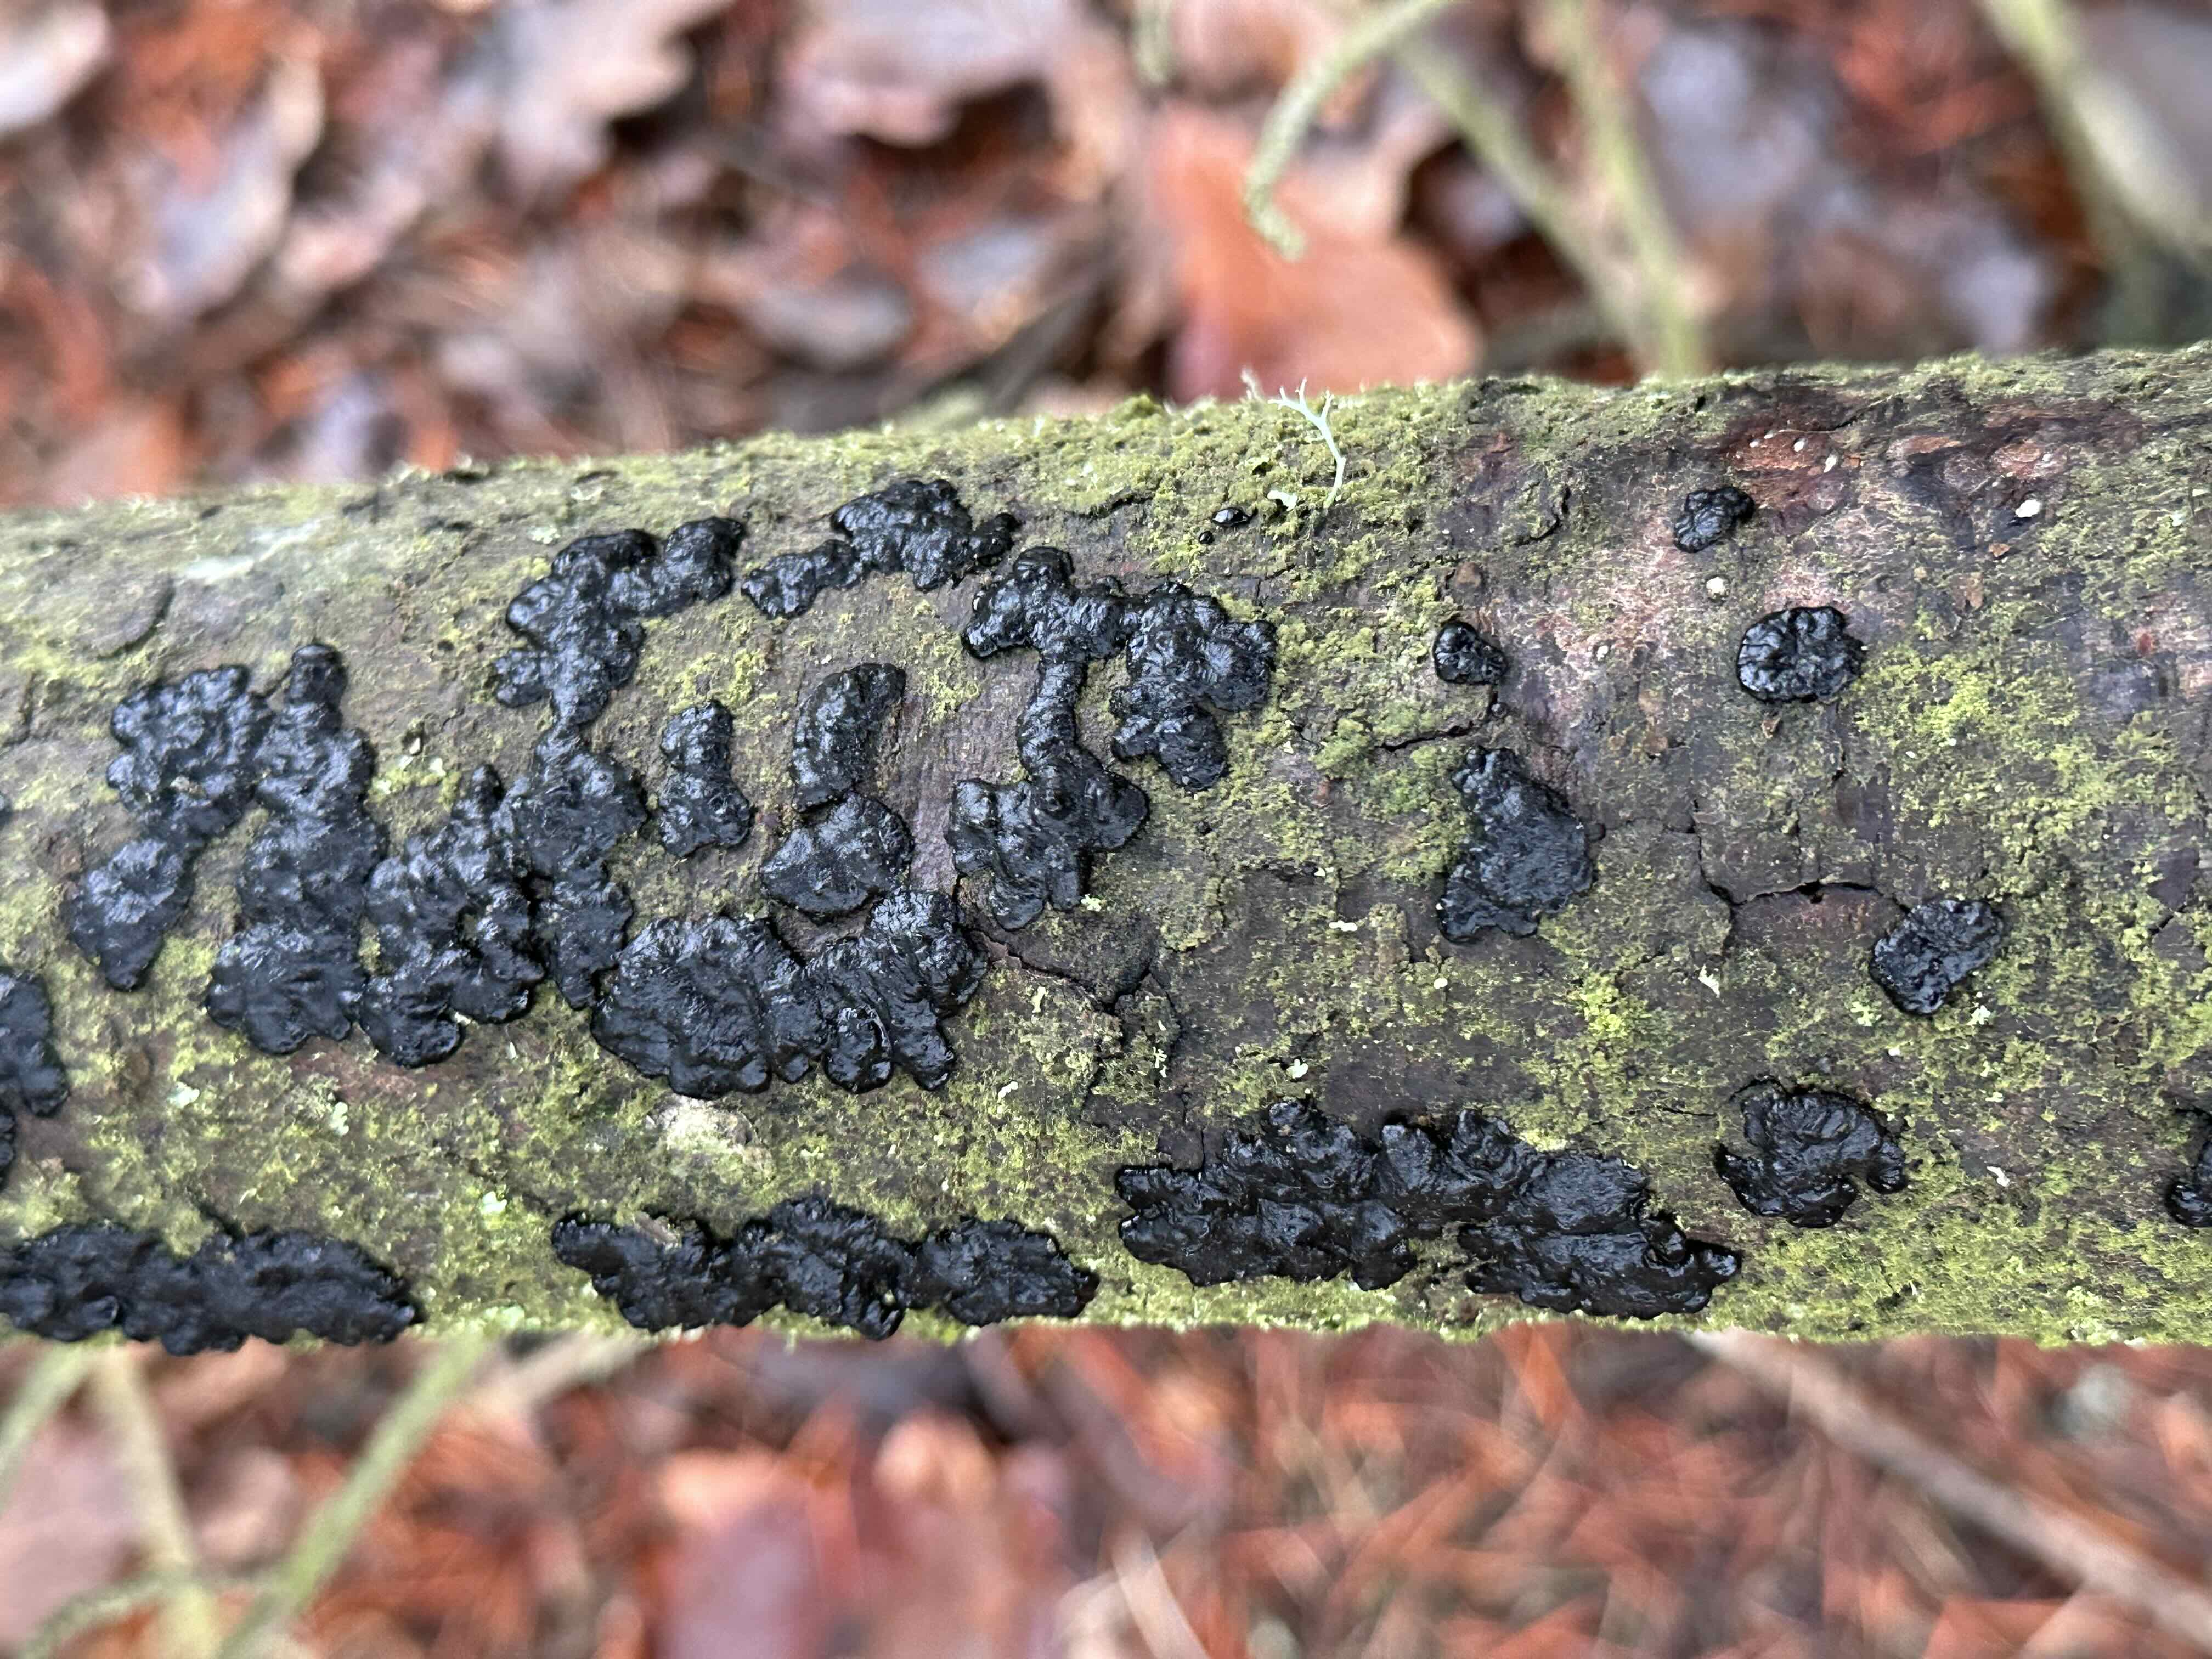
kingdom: Fungi
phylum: Basidiomycota
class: Agaricomycetes
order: Auriculariales
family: Auriculariaceae
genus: Exidia
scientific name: Exidia pithya
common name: gran-bævretop
